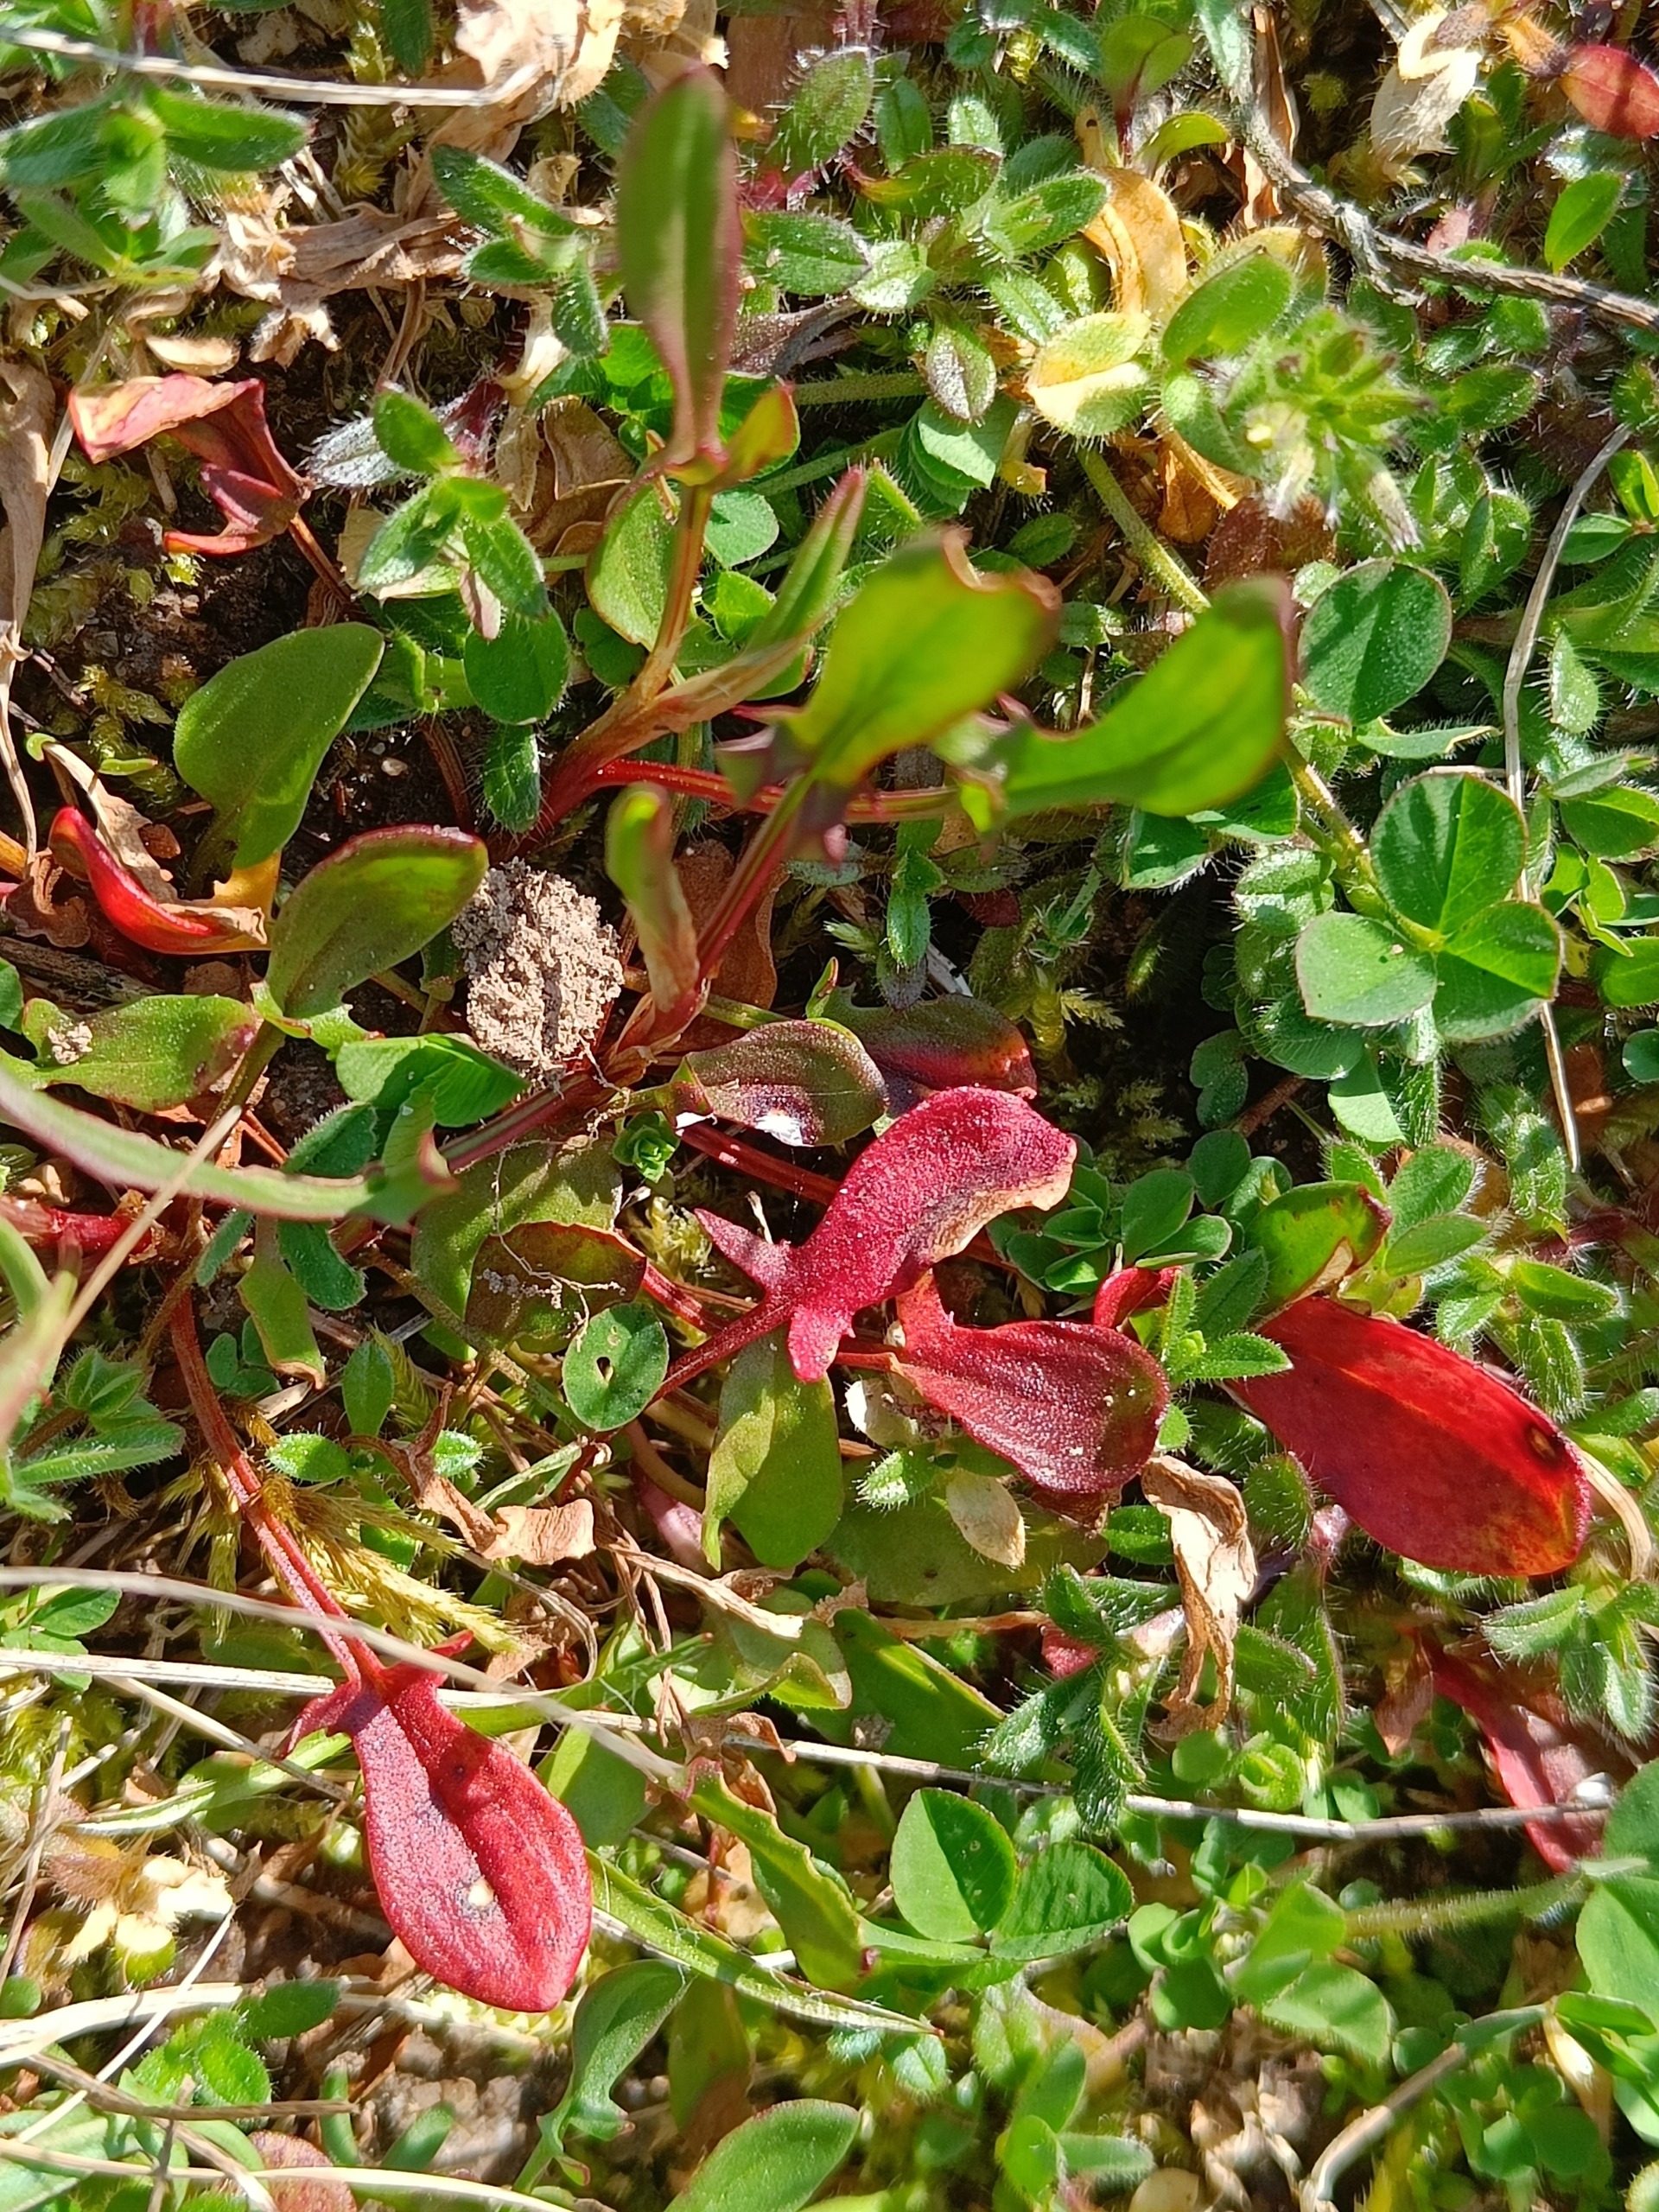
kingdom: Plantae
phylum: Tracheophyta
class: Magnoliopsida
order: Caryophyllales
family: Polygonaceae
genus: Rumex
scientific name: Rumex acetosella
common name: Rødknæ
